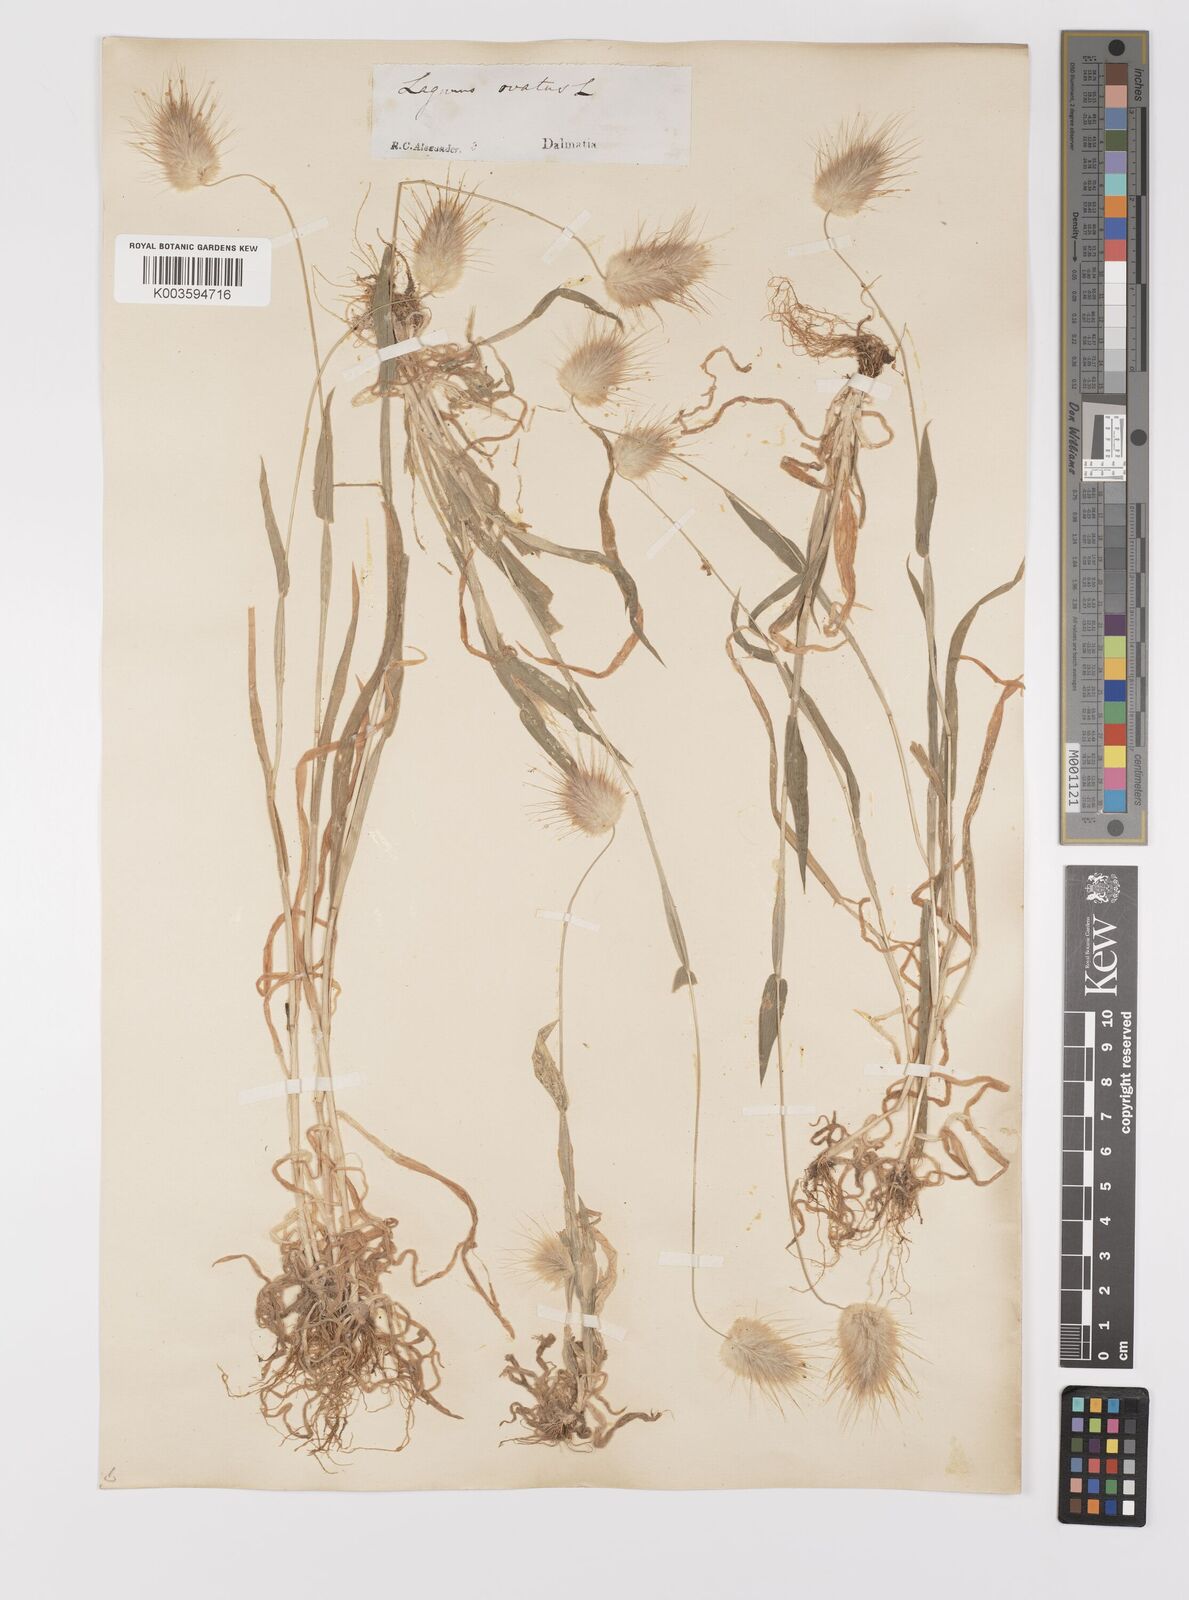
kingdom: Plantae
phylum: Tracheophyta
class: Liliopsida
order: Poales
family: Poaceae
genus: Lagurus
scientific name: Lagurus ovatus
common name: Hare's-tail
